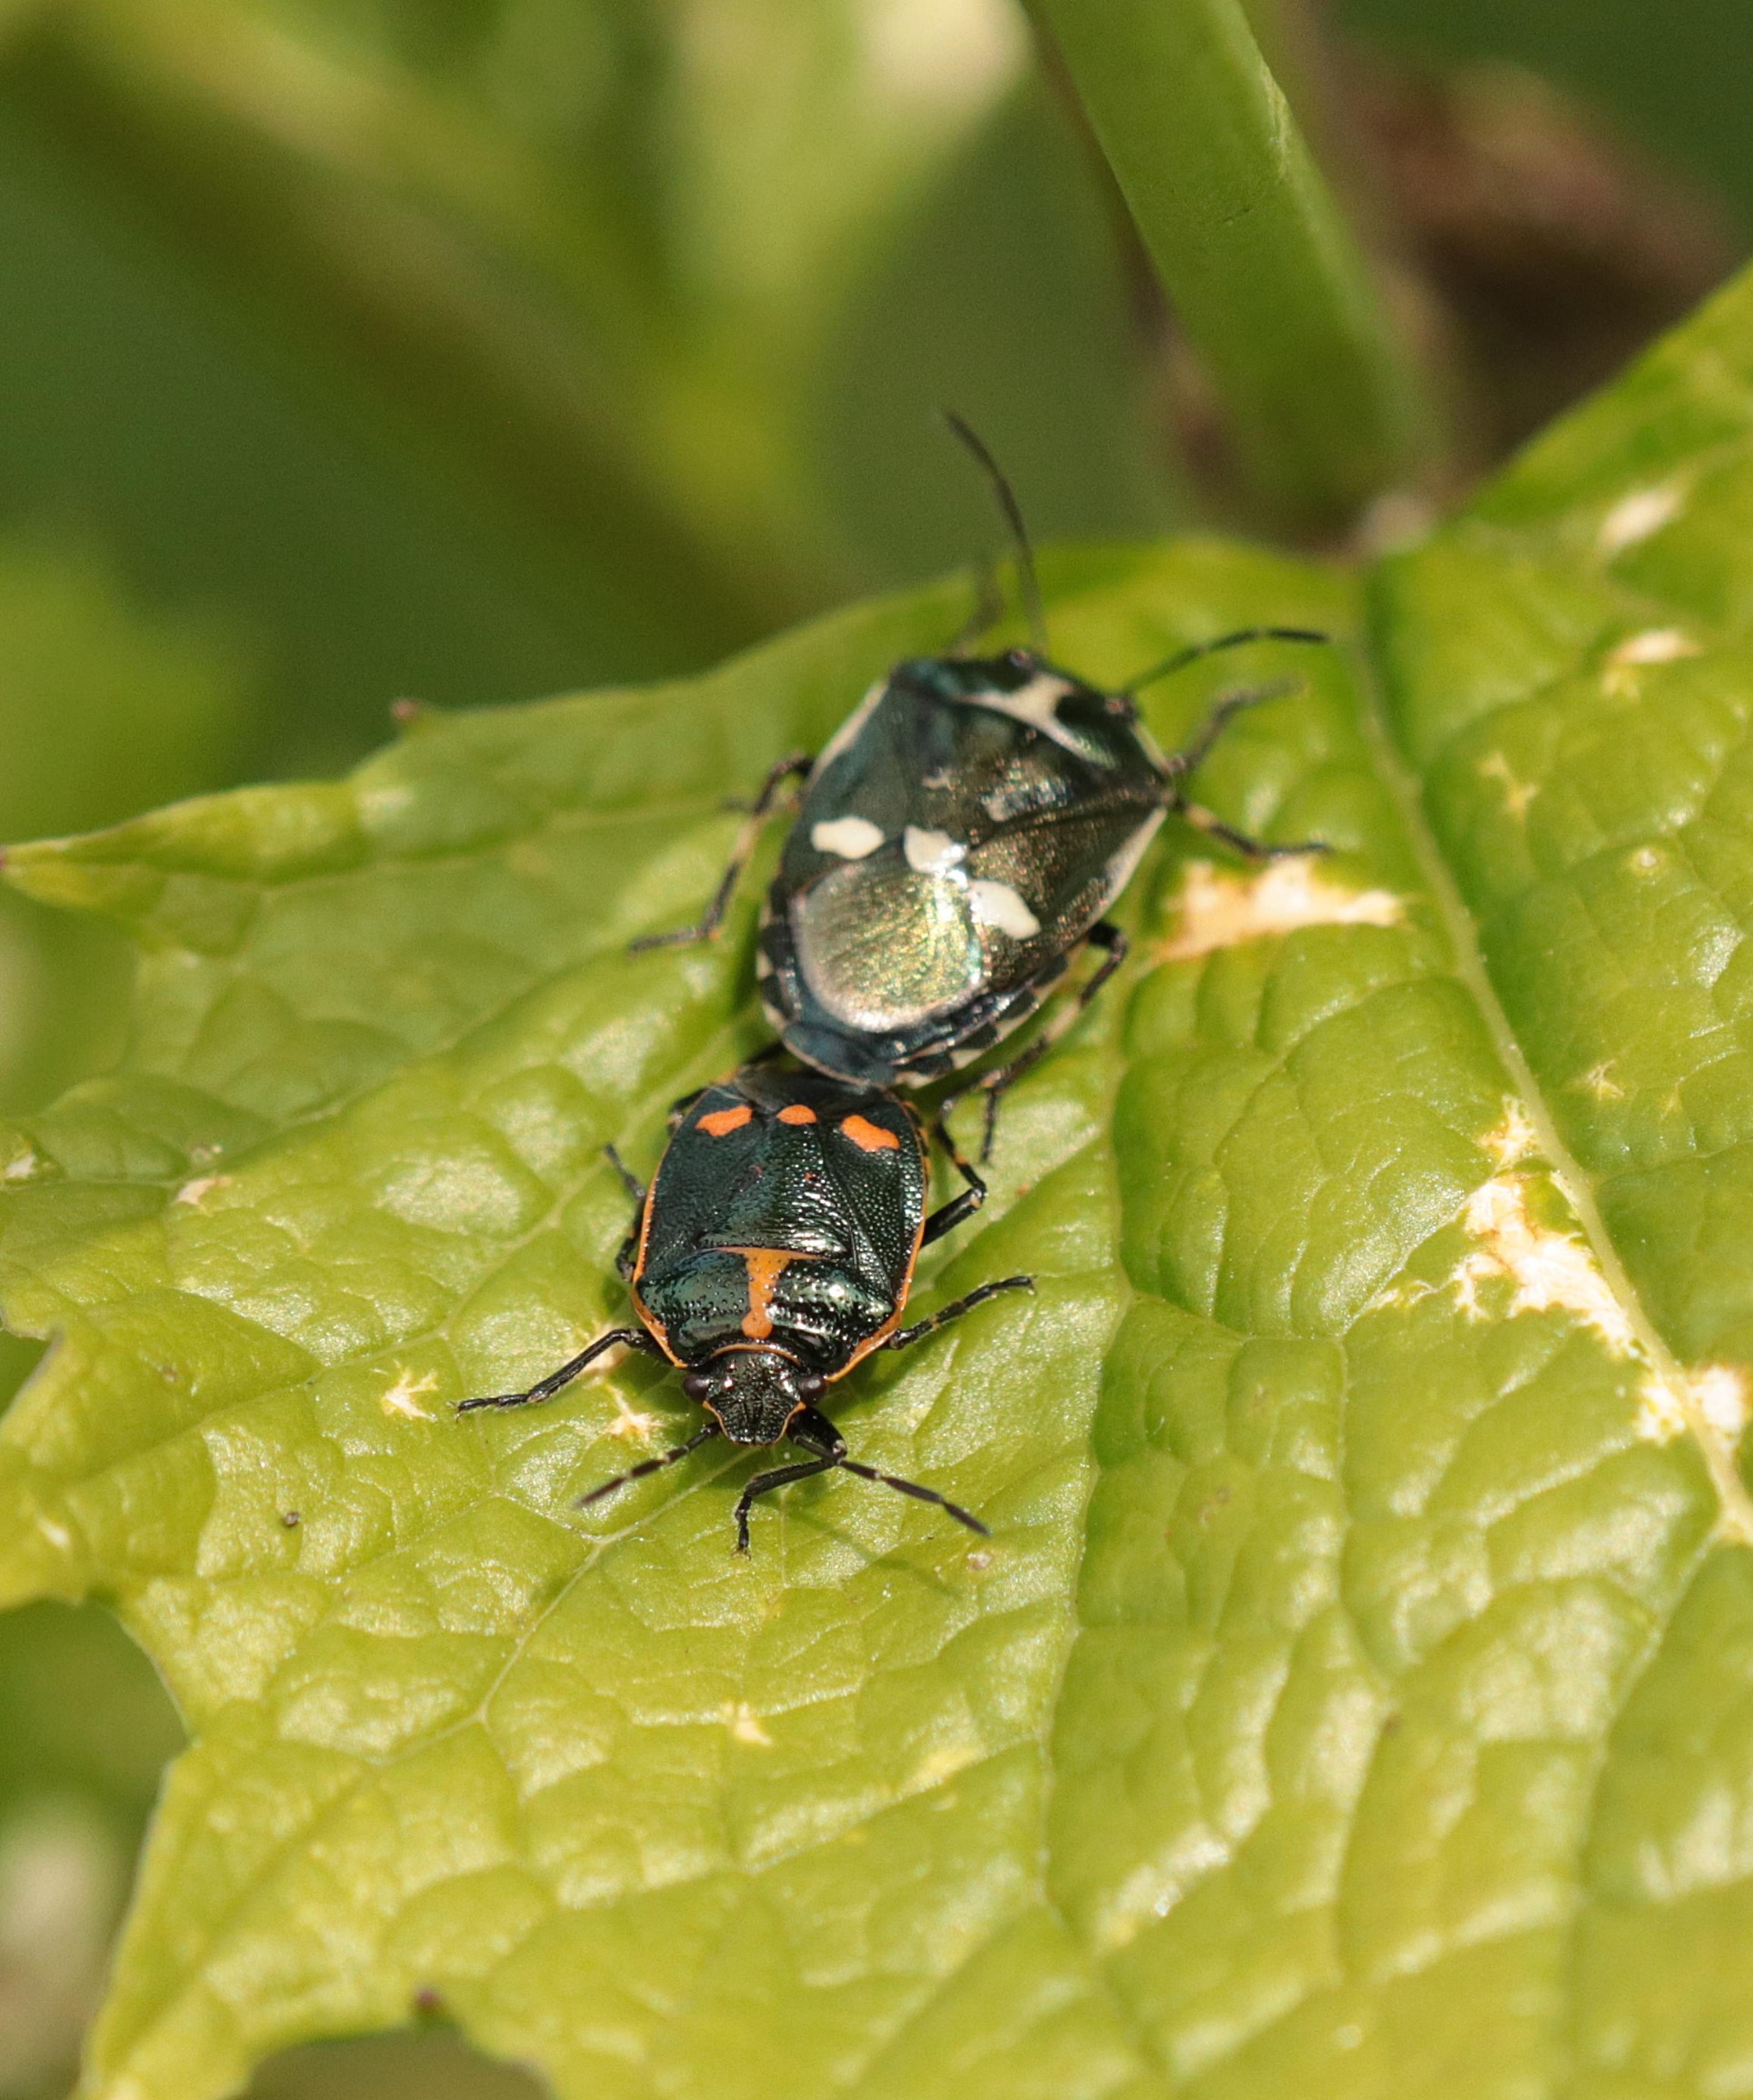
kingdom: Animalia
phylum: Arthropoda
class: Insecta
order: Hemiptera
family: Pentatomidae
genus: Eurydema
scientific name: Eurydema oleracea
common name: Almindelig kåltæge
